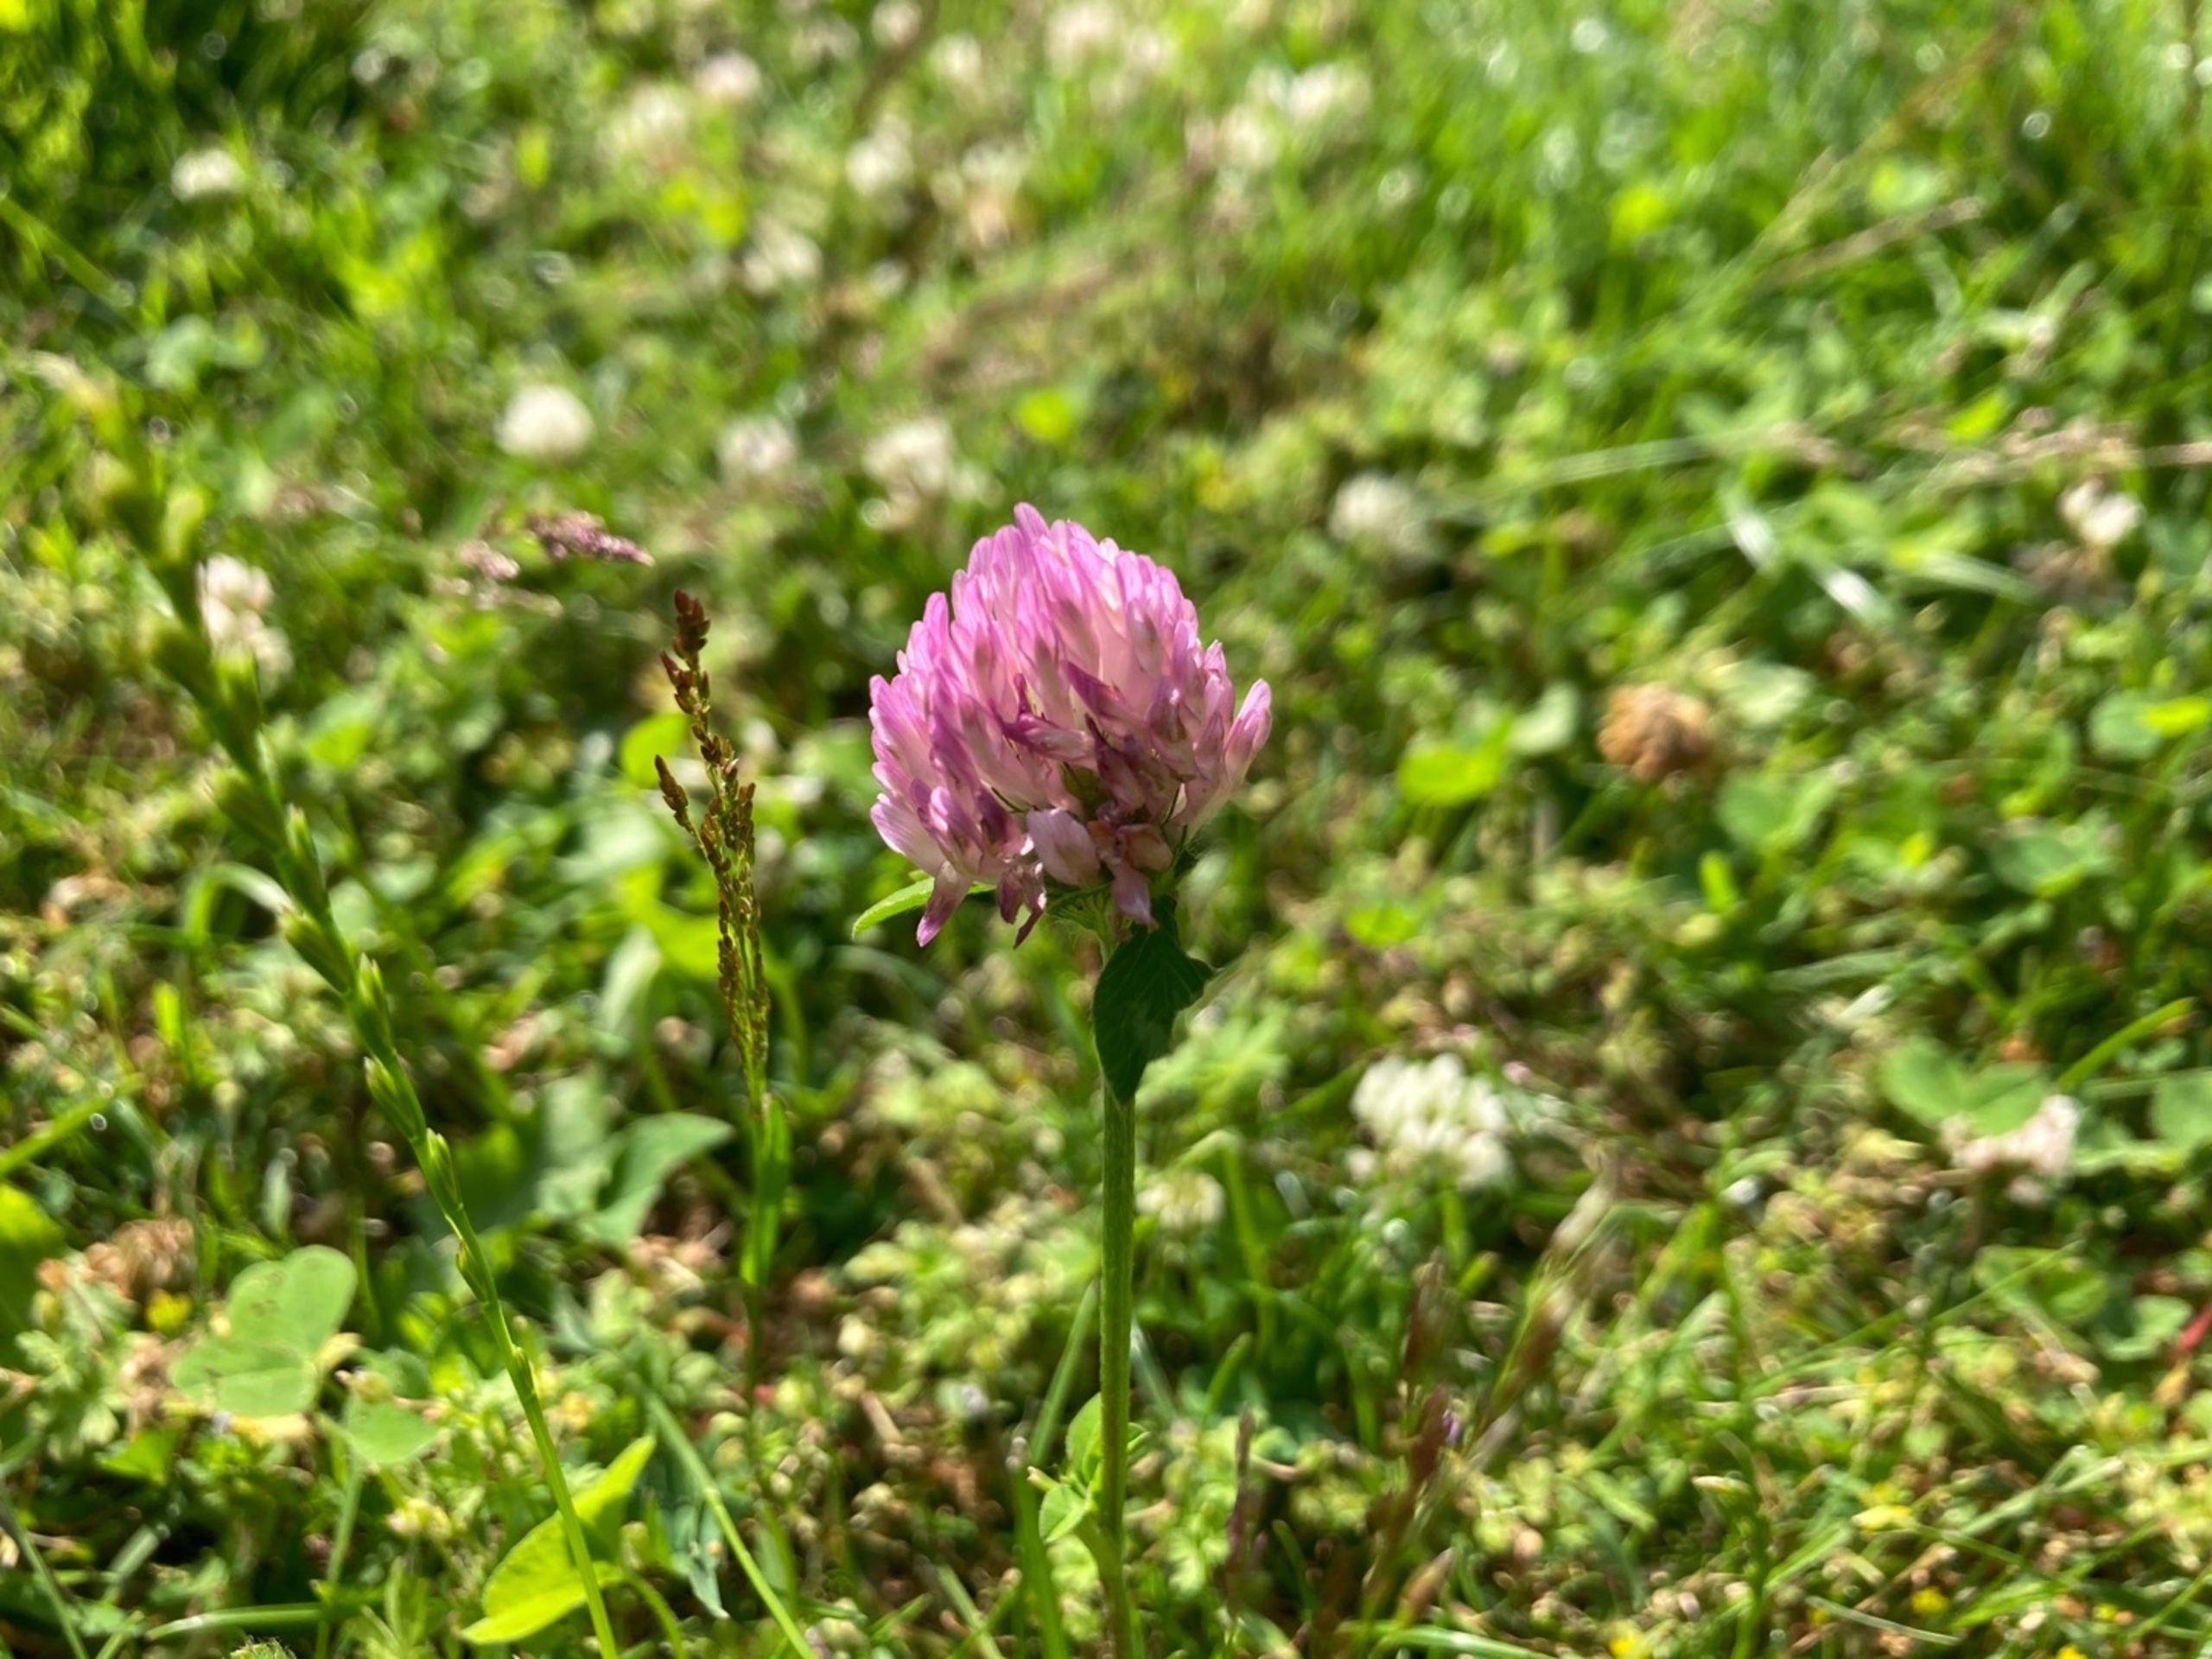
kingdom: Plantae
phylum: Tracheophyta
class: Magnoliopsida
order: Fabales
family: Fabaceae
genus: Trifolium
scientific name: Trifolium pratense
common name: Rød-kløver
